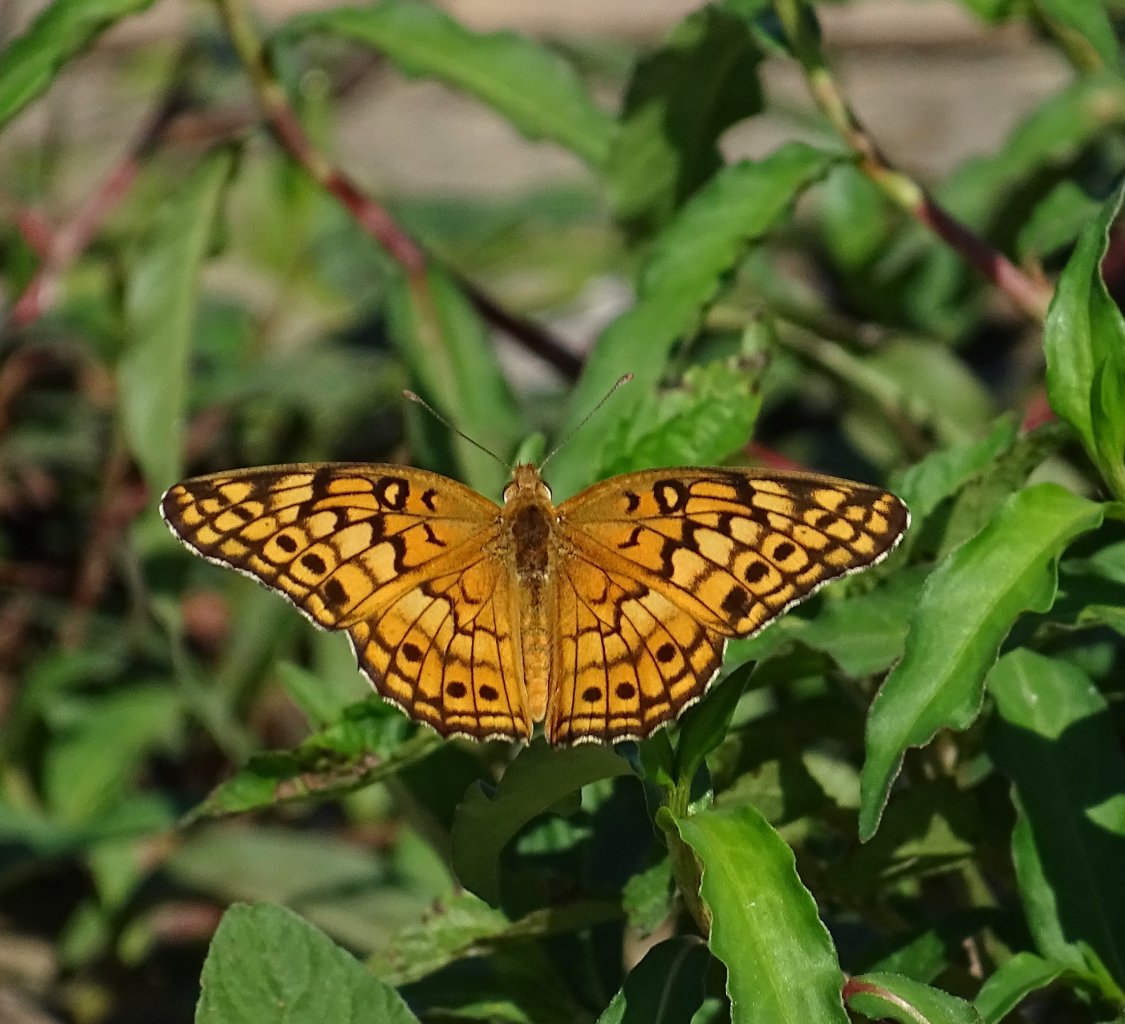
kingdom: Animalia
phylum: Arthropoda
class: Insecta
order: Lepidoptera
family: Nymphalidae
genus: Euptoieta
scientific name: Euptoieta claudia
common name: Variegated Fritillary
